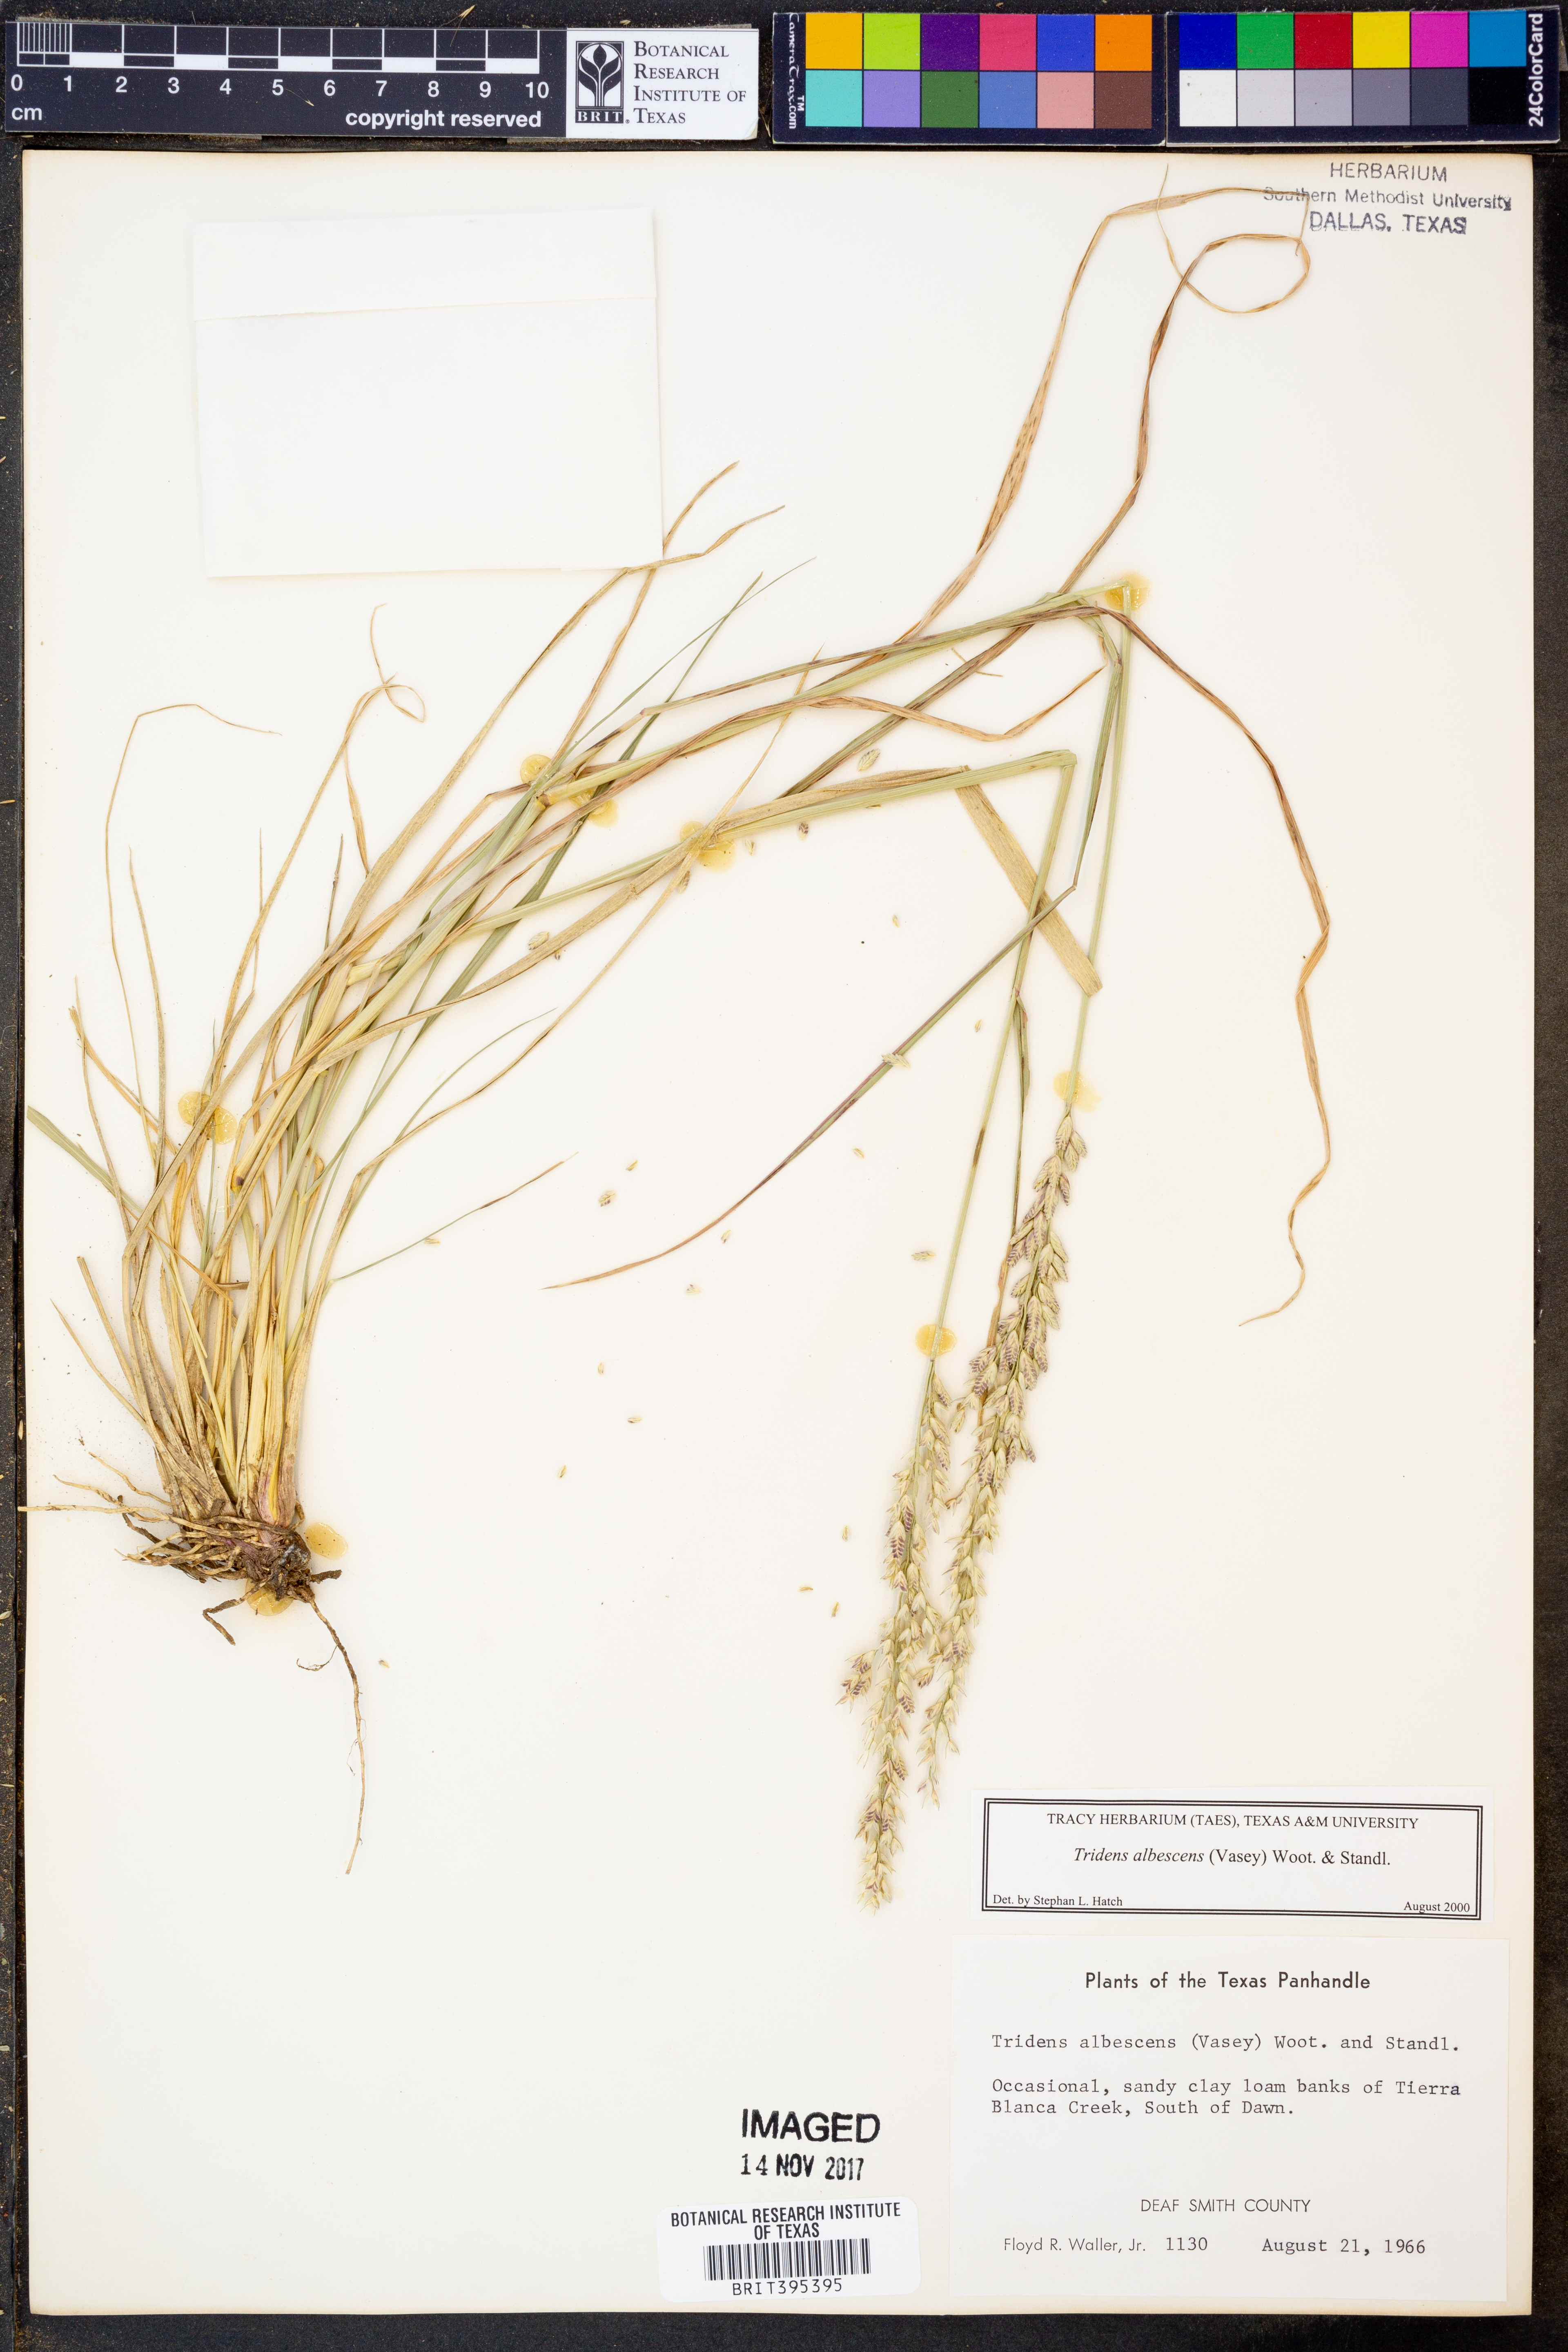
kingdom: Plantae
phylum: Tracheophyta
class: Liliopsida
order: Poales
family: Poaceae
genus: Tridens
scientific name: Tridens albescens
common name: White tridens
